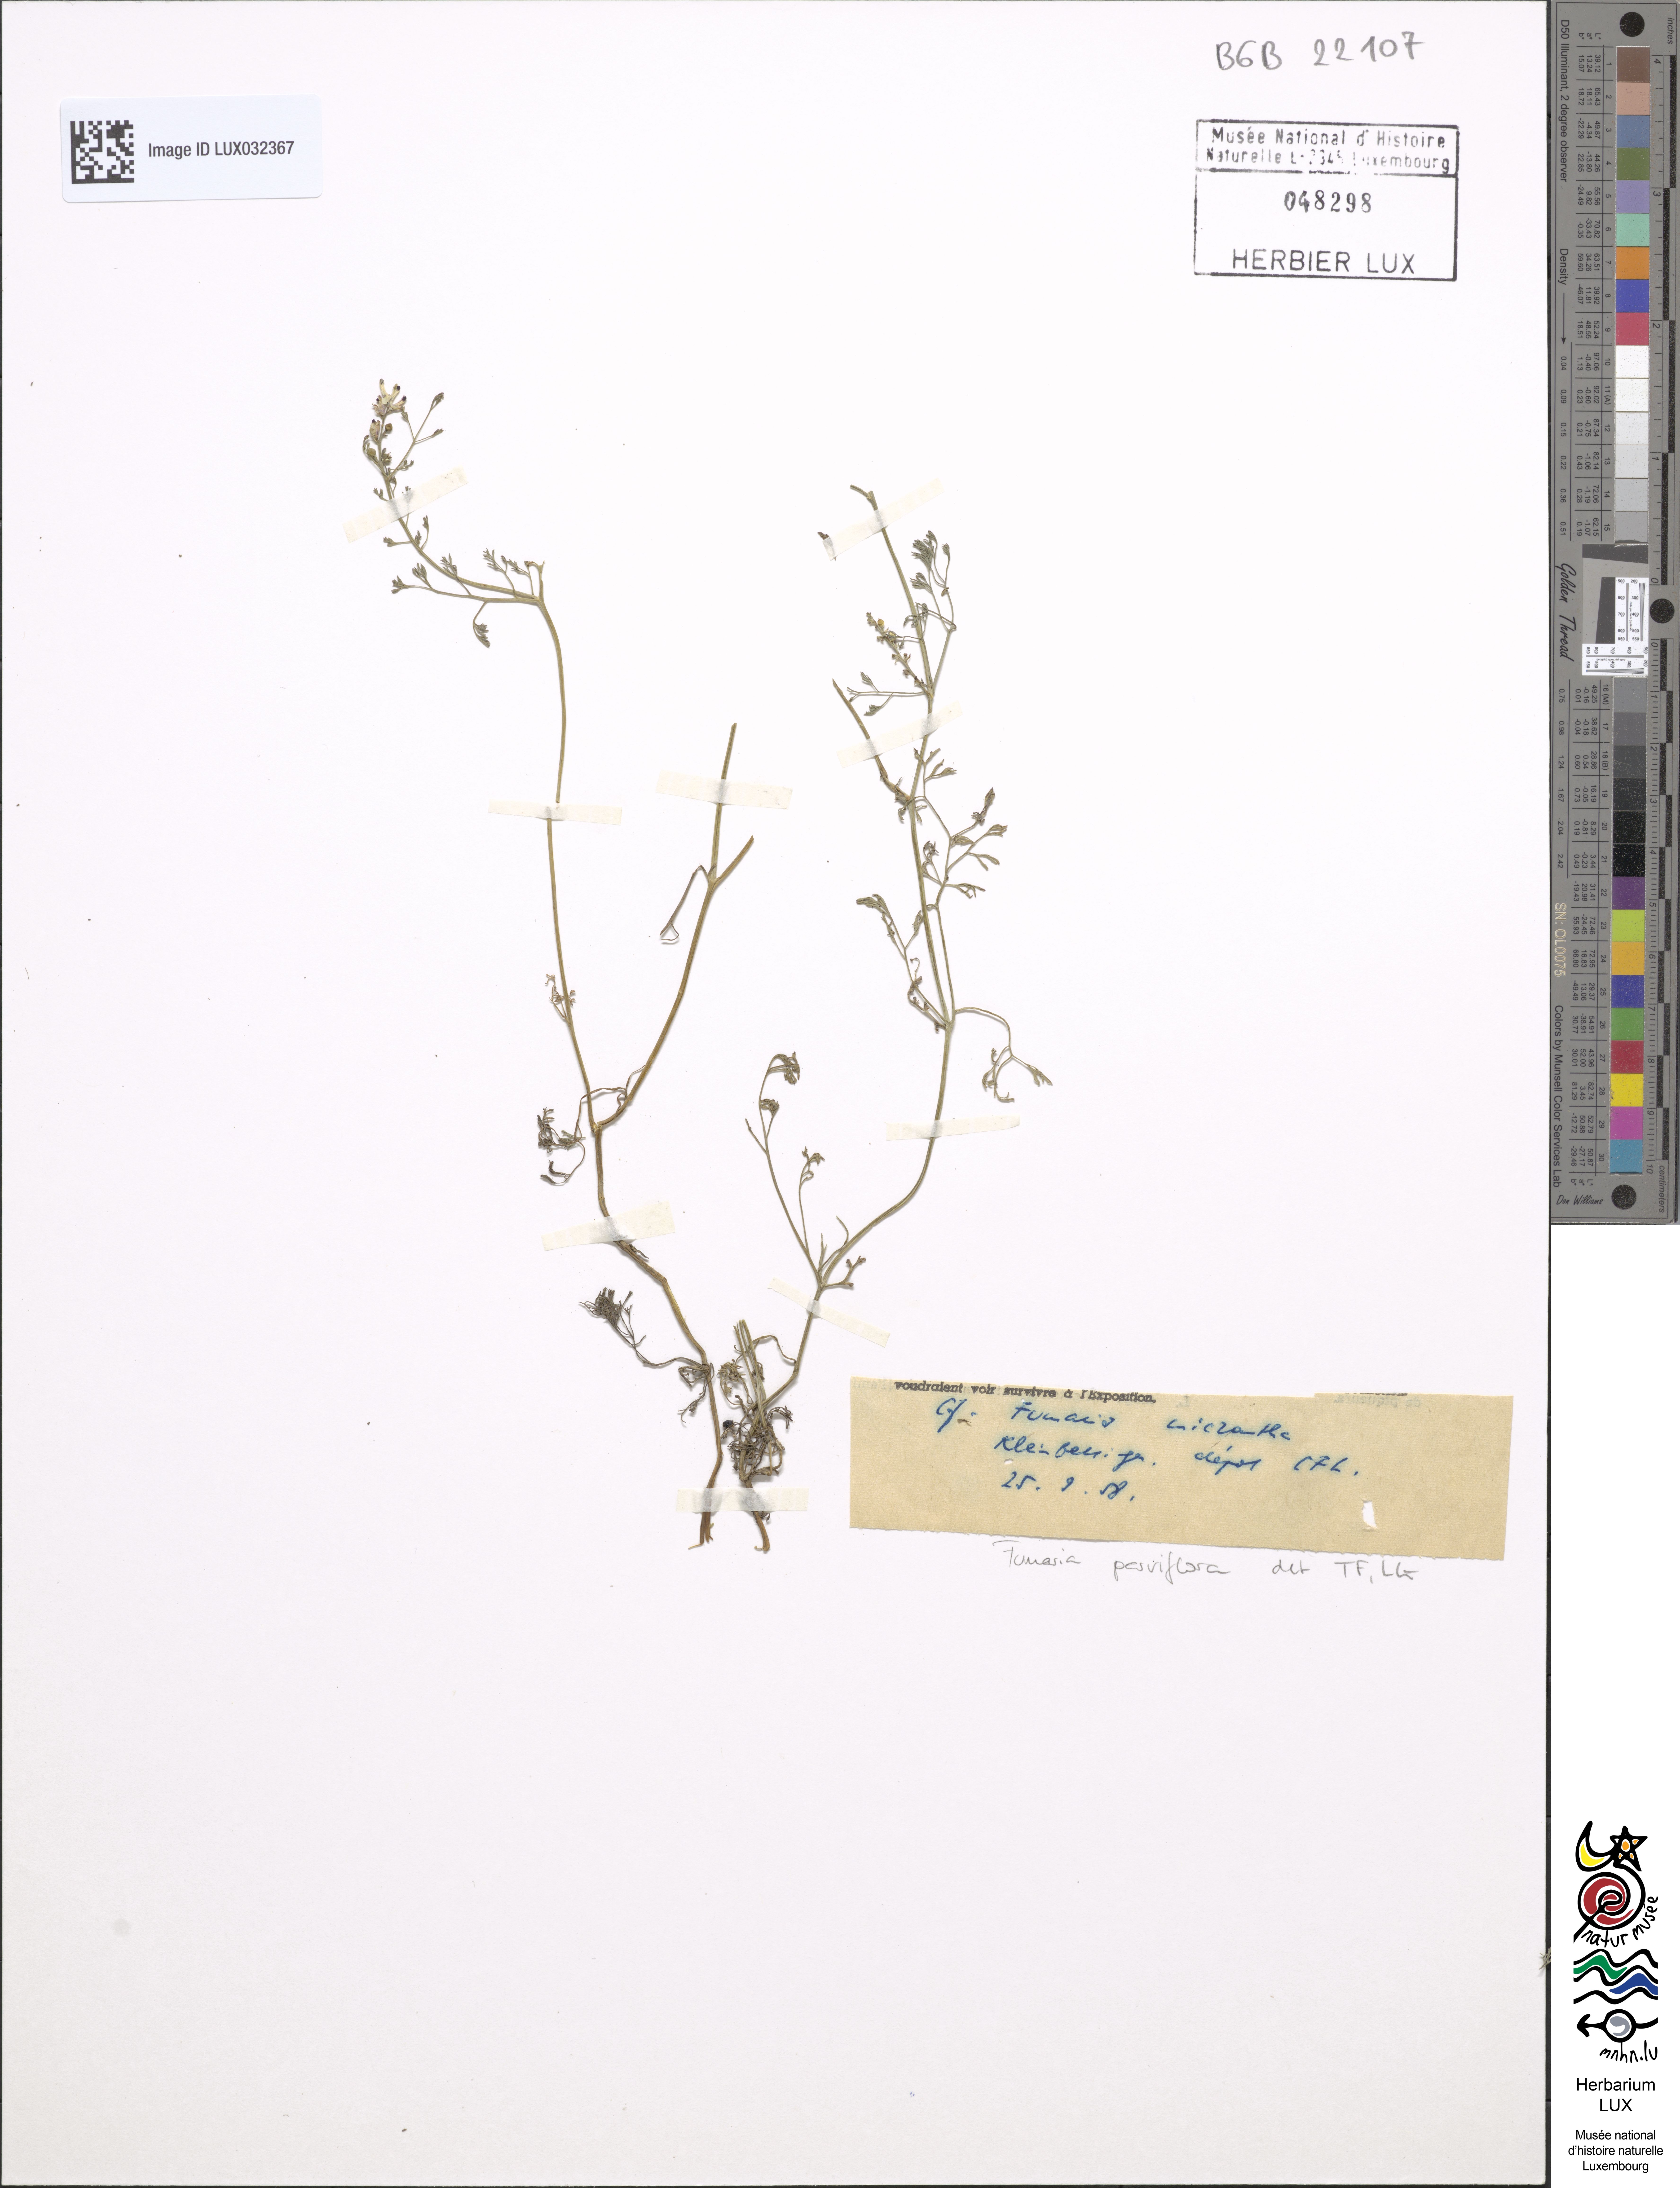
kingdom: Plantae
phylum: Tracheophyta
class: Magnoliopsida
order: Ranunculales
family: Papaveraceae
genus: Fumaria
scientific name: Fumaria parviflora
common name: Fine-leaved fumitory
